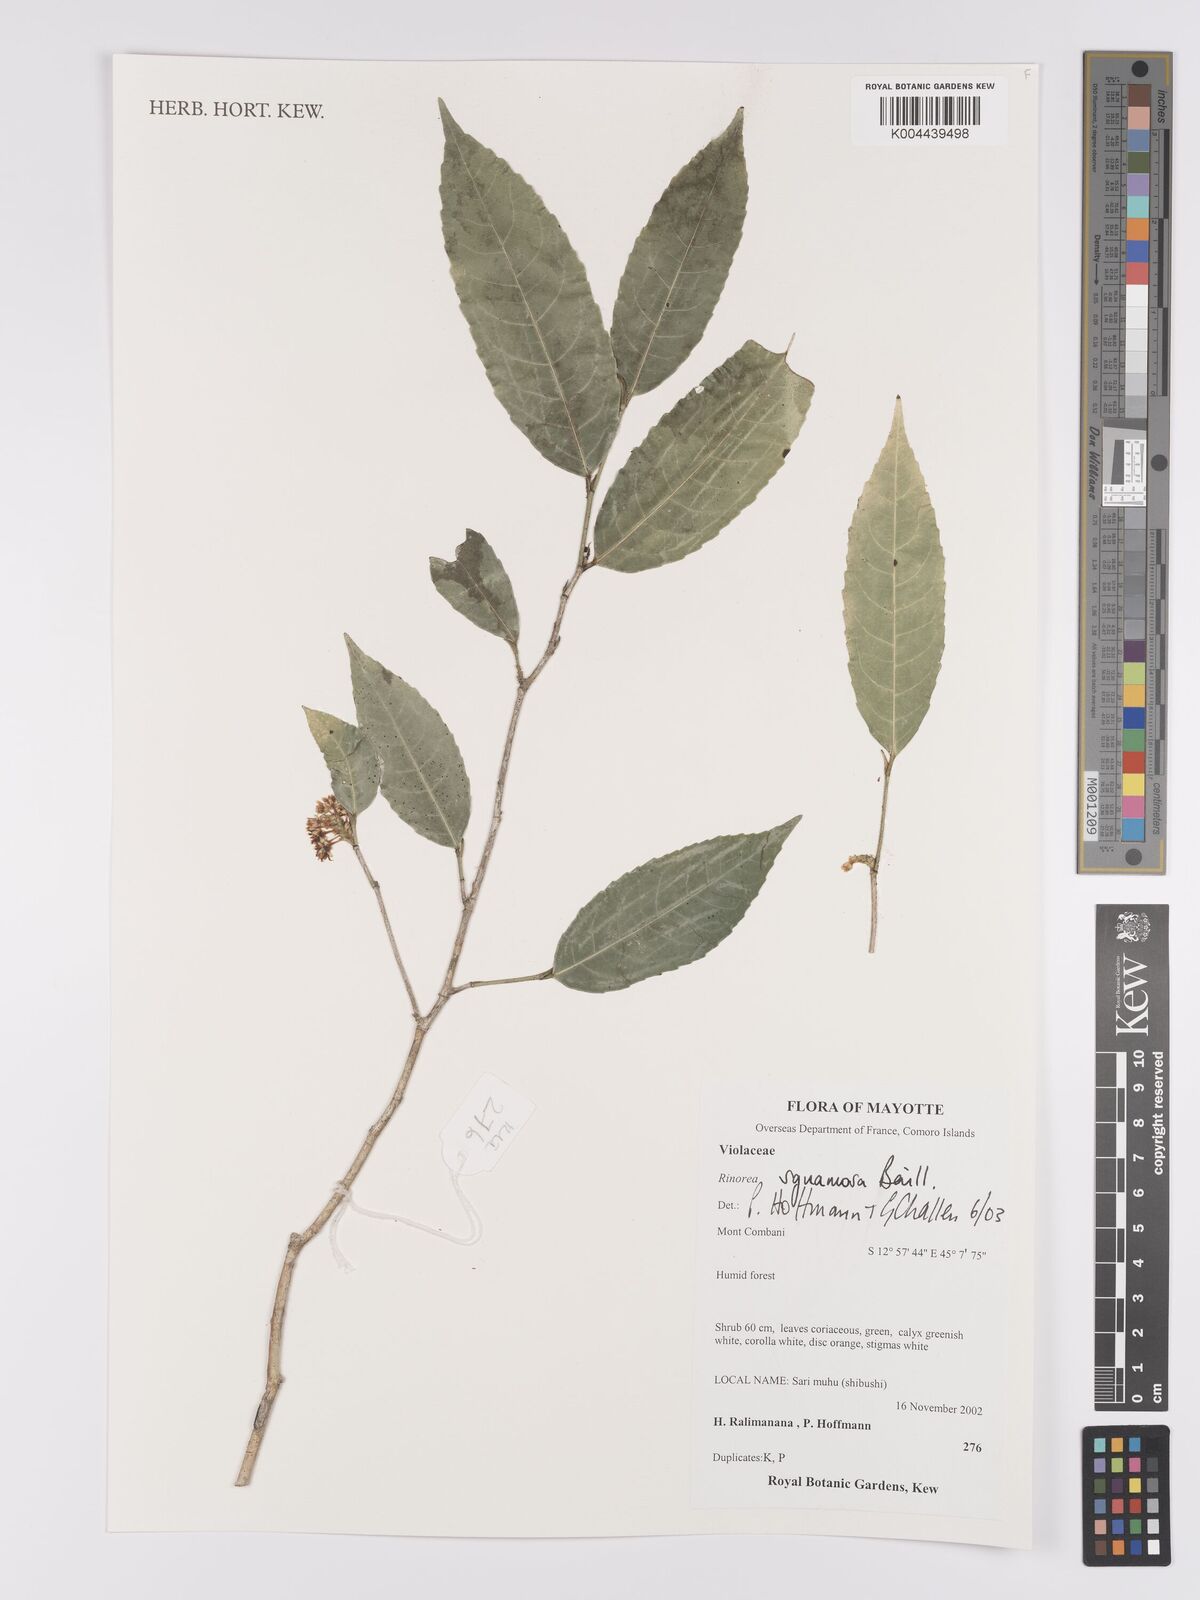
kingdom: Plantae
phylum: Tracheophyta
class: Magnoliopsida
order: Malpighiales
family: Violaceae
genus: Rinorea
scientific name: Rinorea squamosa
